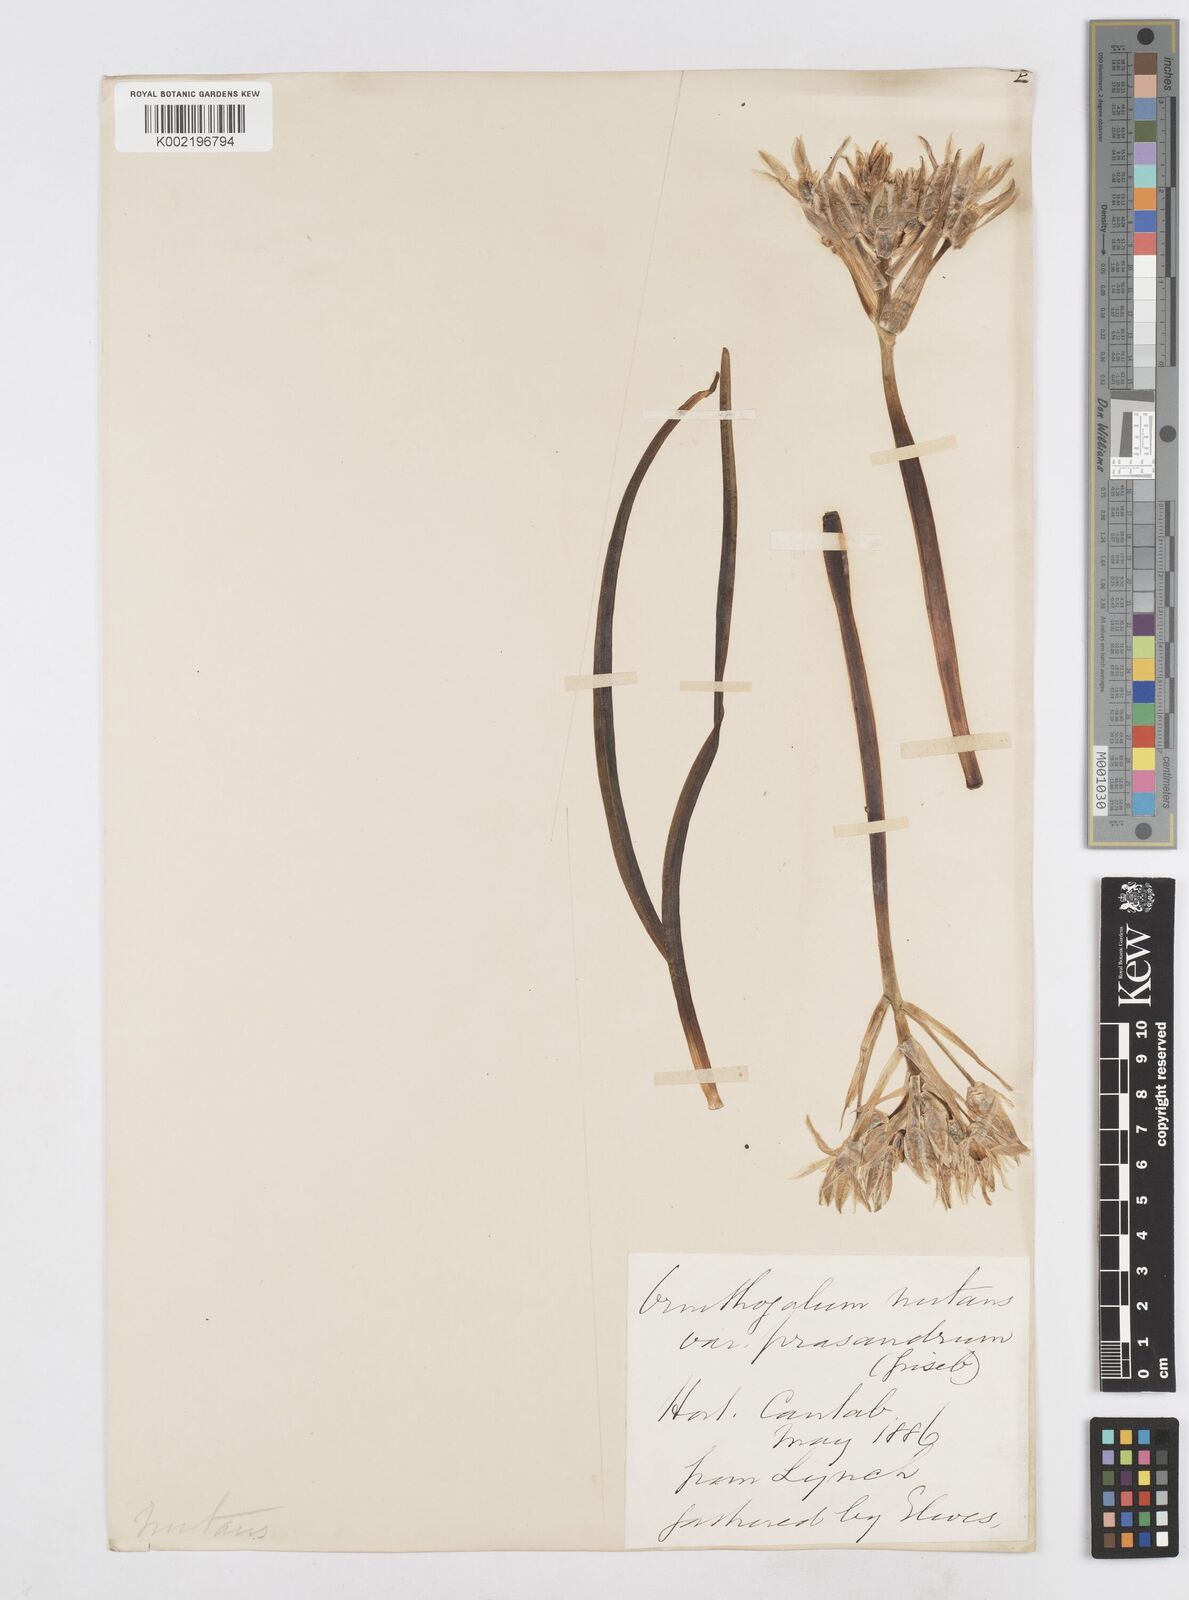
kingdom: Plantae
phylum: Tracheophyta
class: Liliopsida
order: Asparagales
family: Asparagaceae
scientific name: Asparagaceae
